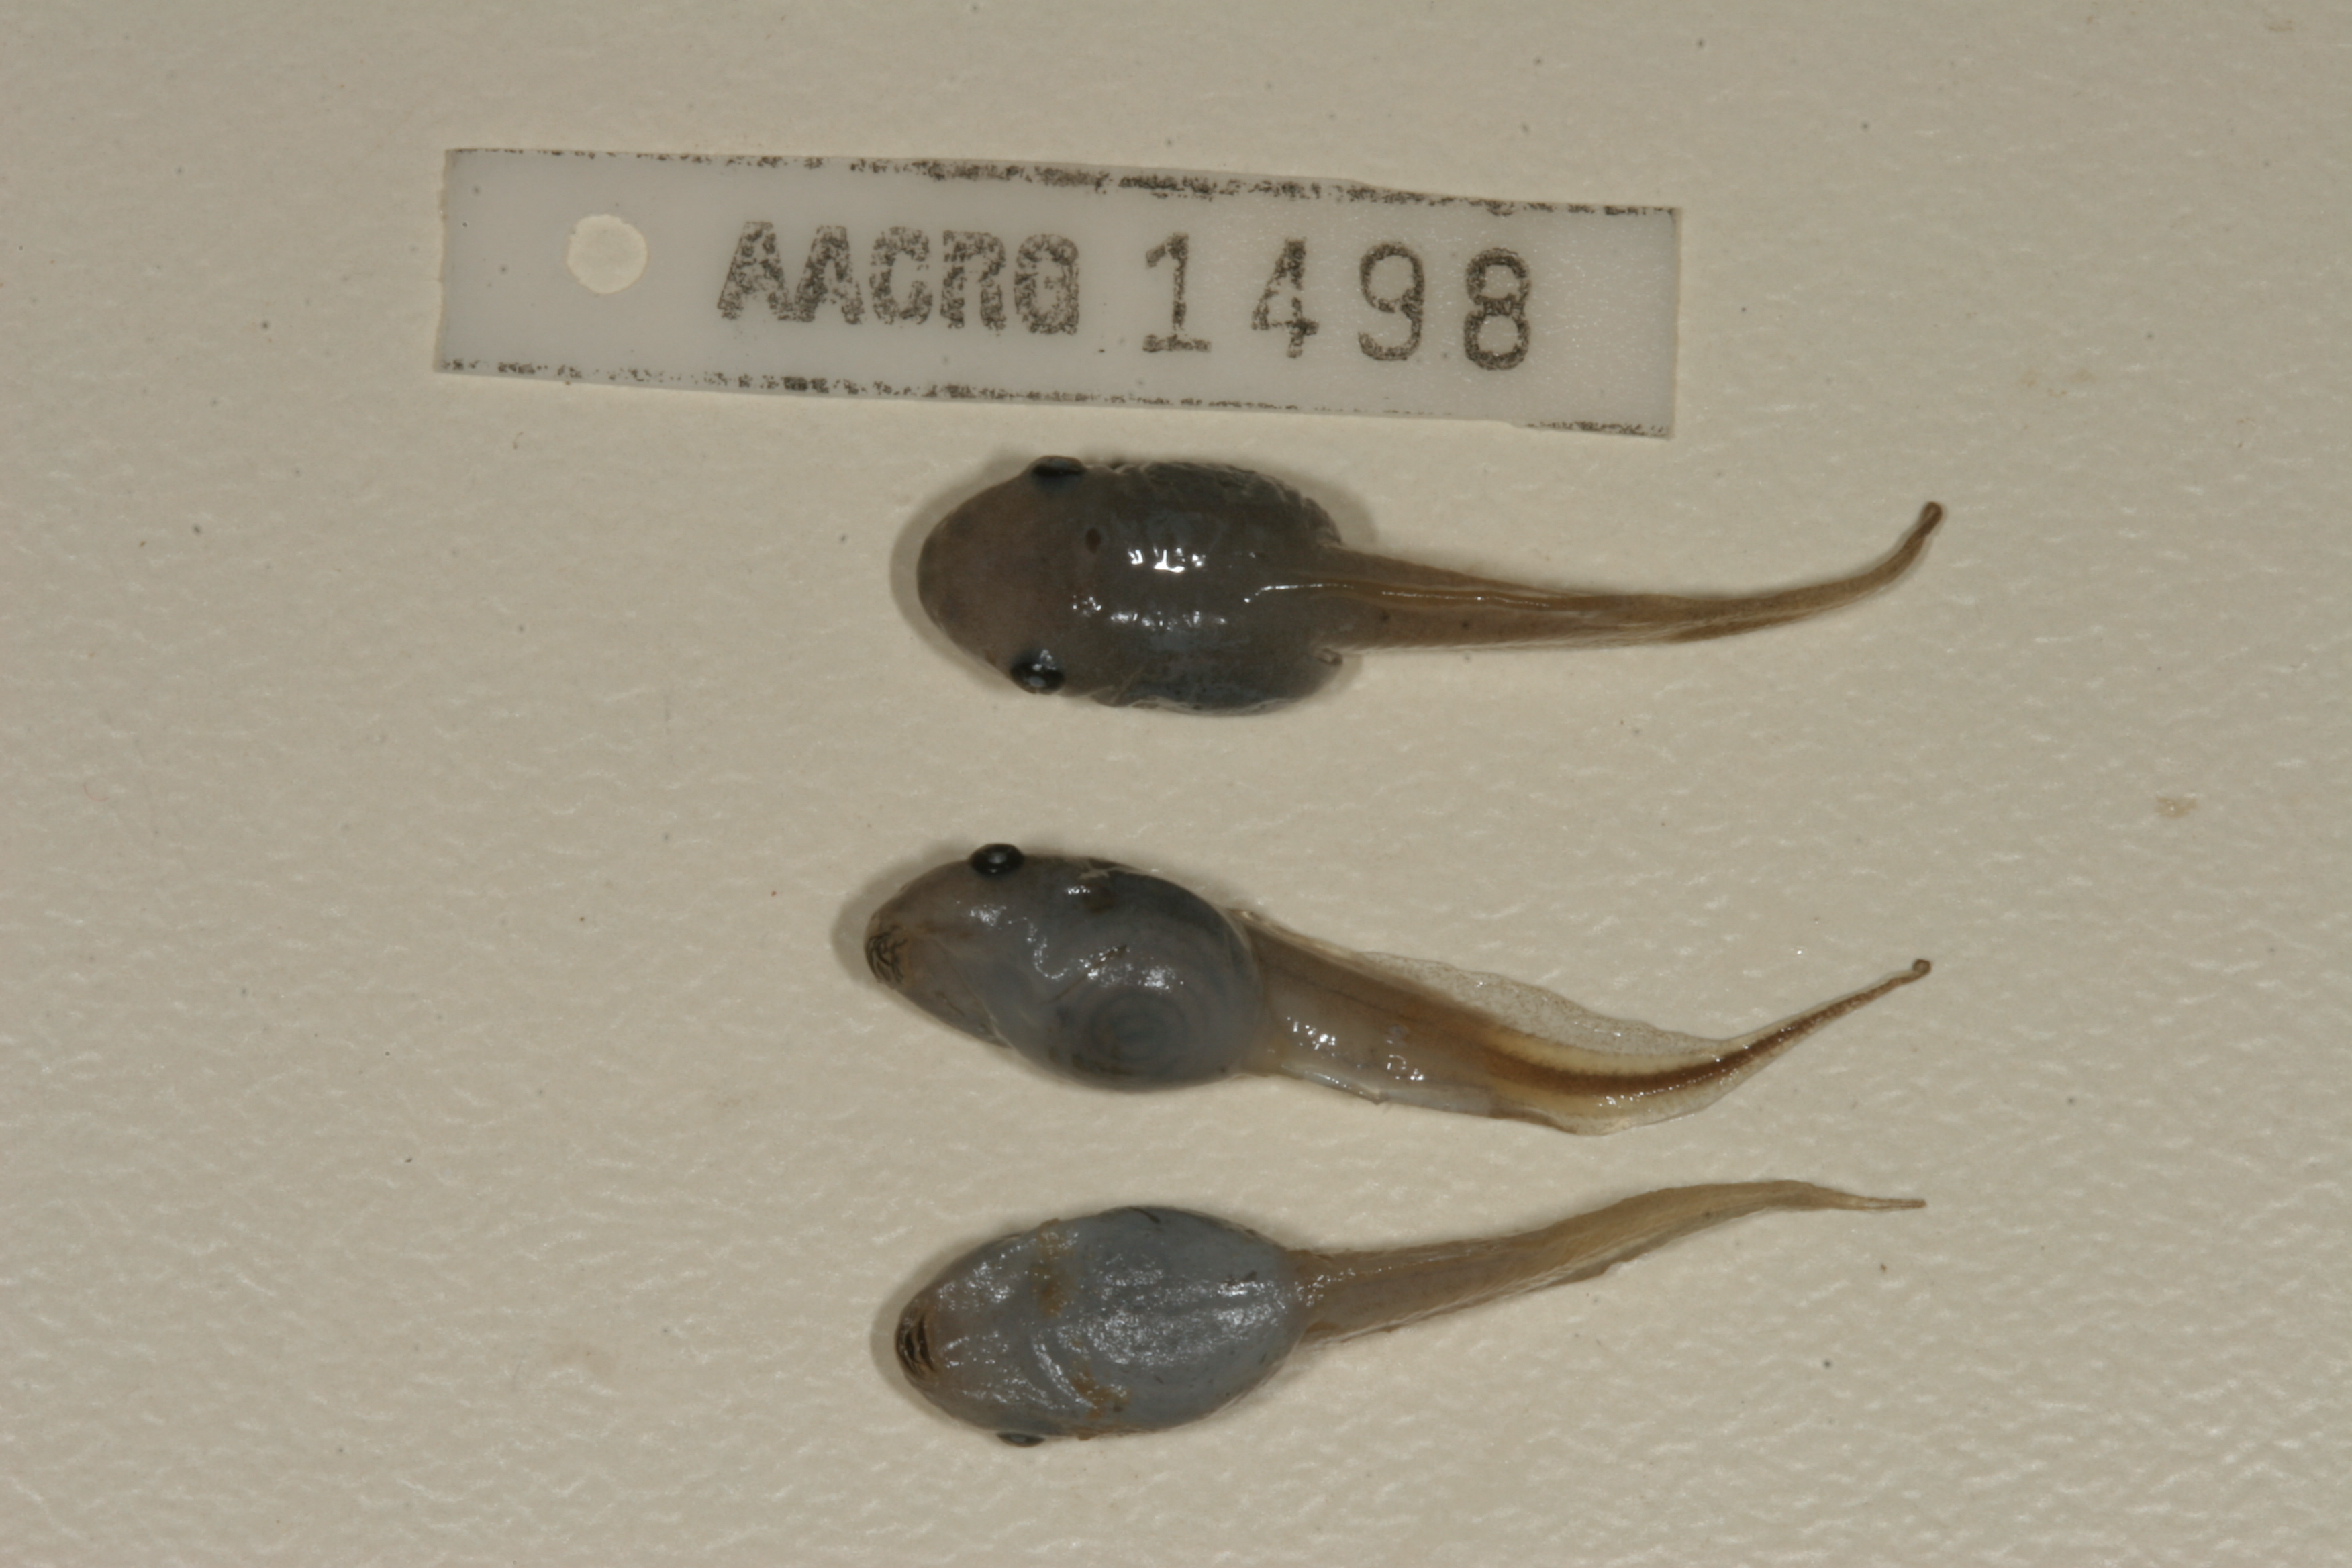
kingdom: Animalia
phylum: Chordata
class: Amphibia
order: Anura
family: Hemisotidae
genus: Hemisus
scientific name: Hemisus marmoratus
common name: Mottled shovel-nosed frog
